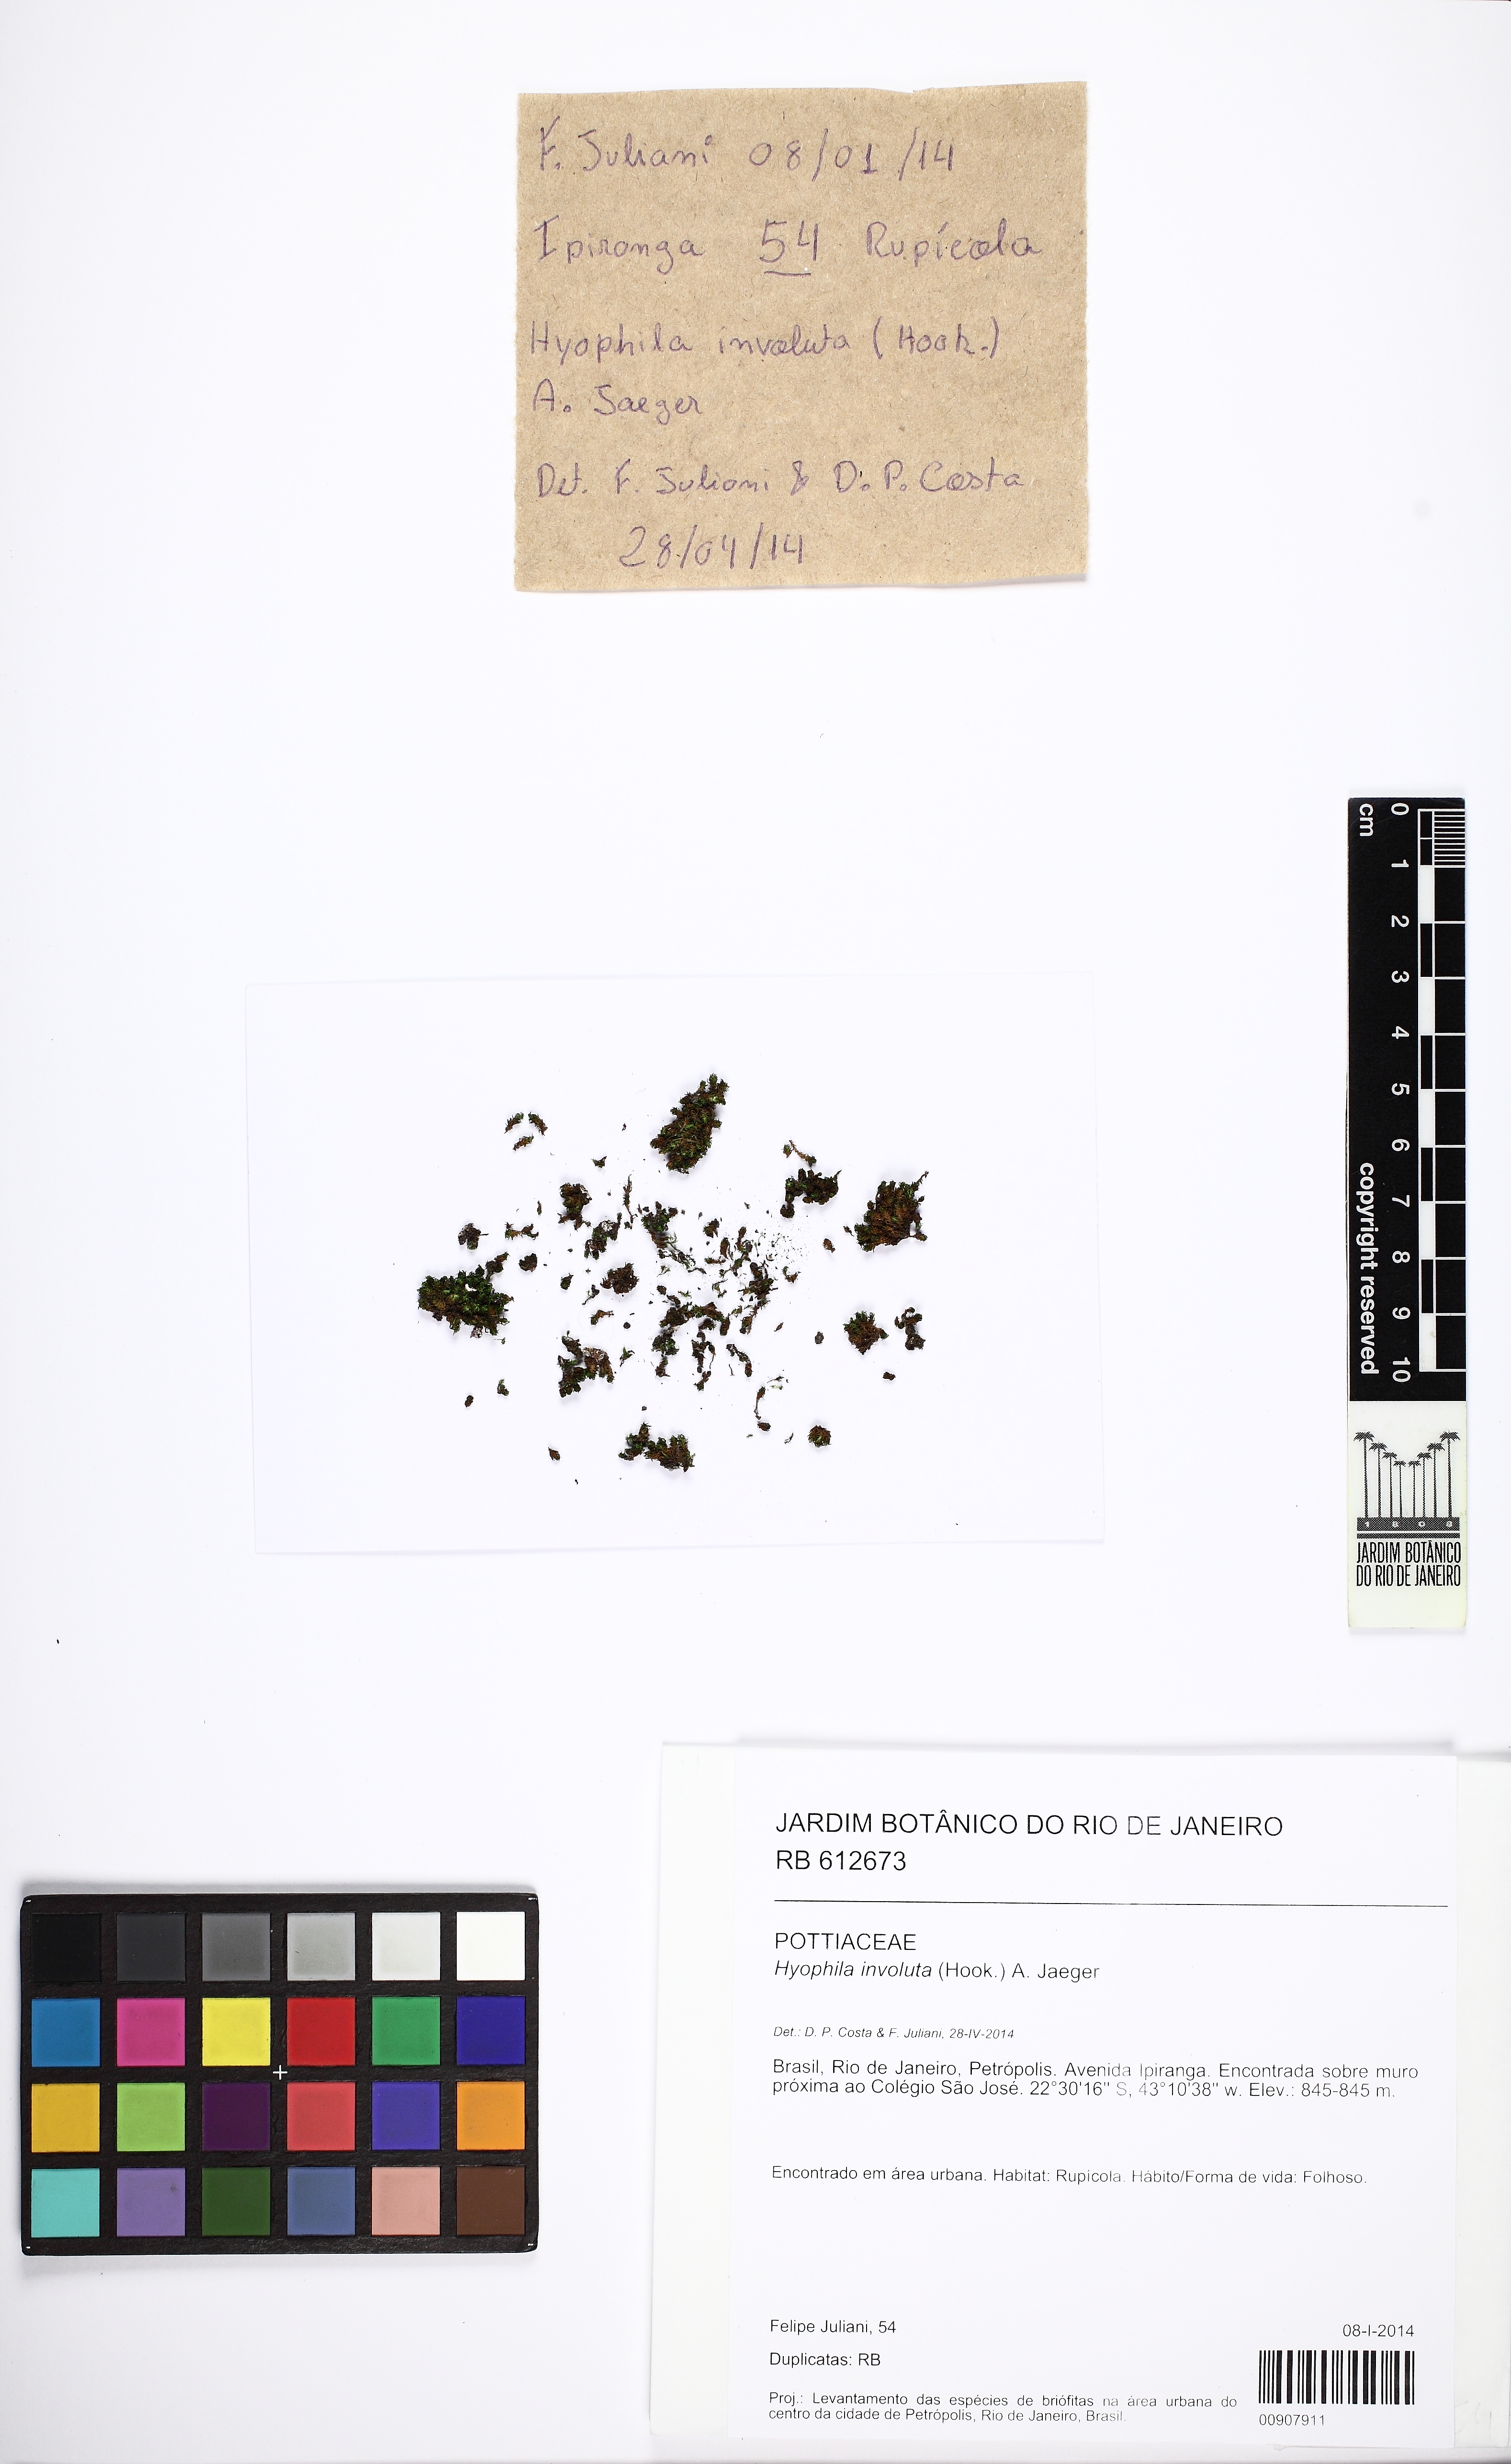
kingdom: Plantae
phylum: Bryophyta
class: Bryopsida
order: Pottiales
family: Pottiaceae
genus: Hyophila
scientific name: Hyophila involuta
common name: Hyophila moss
